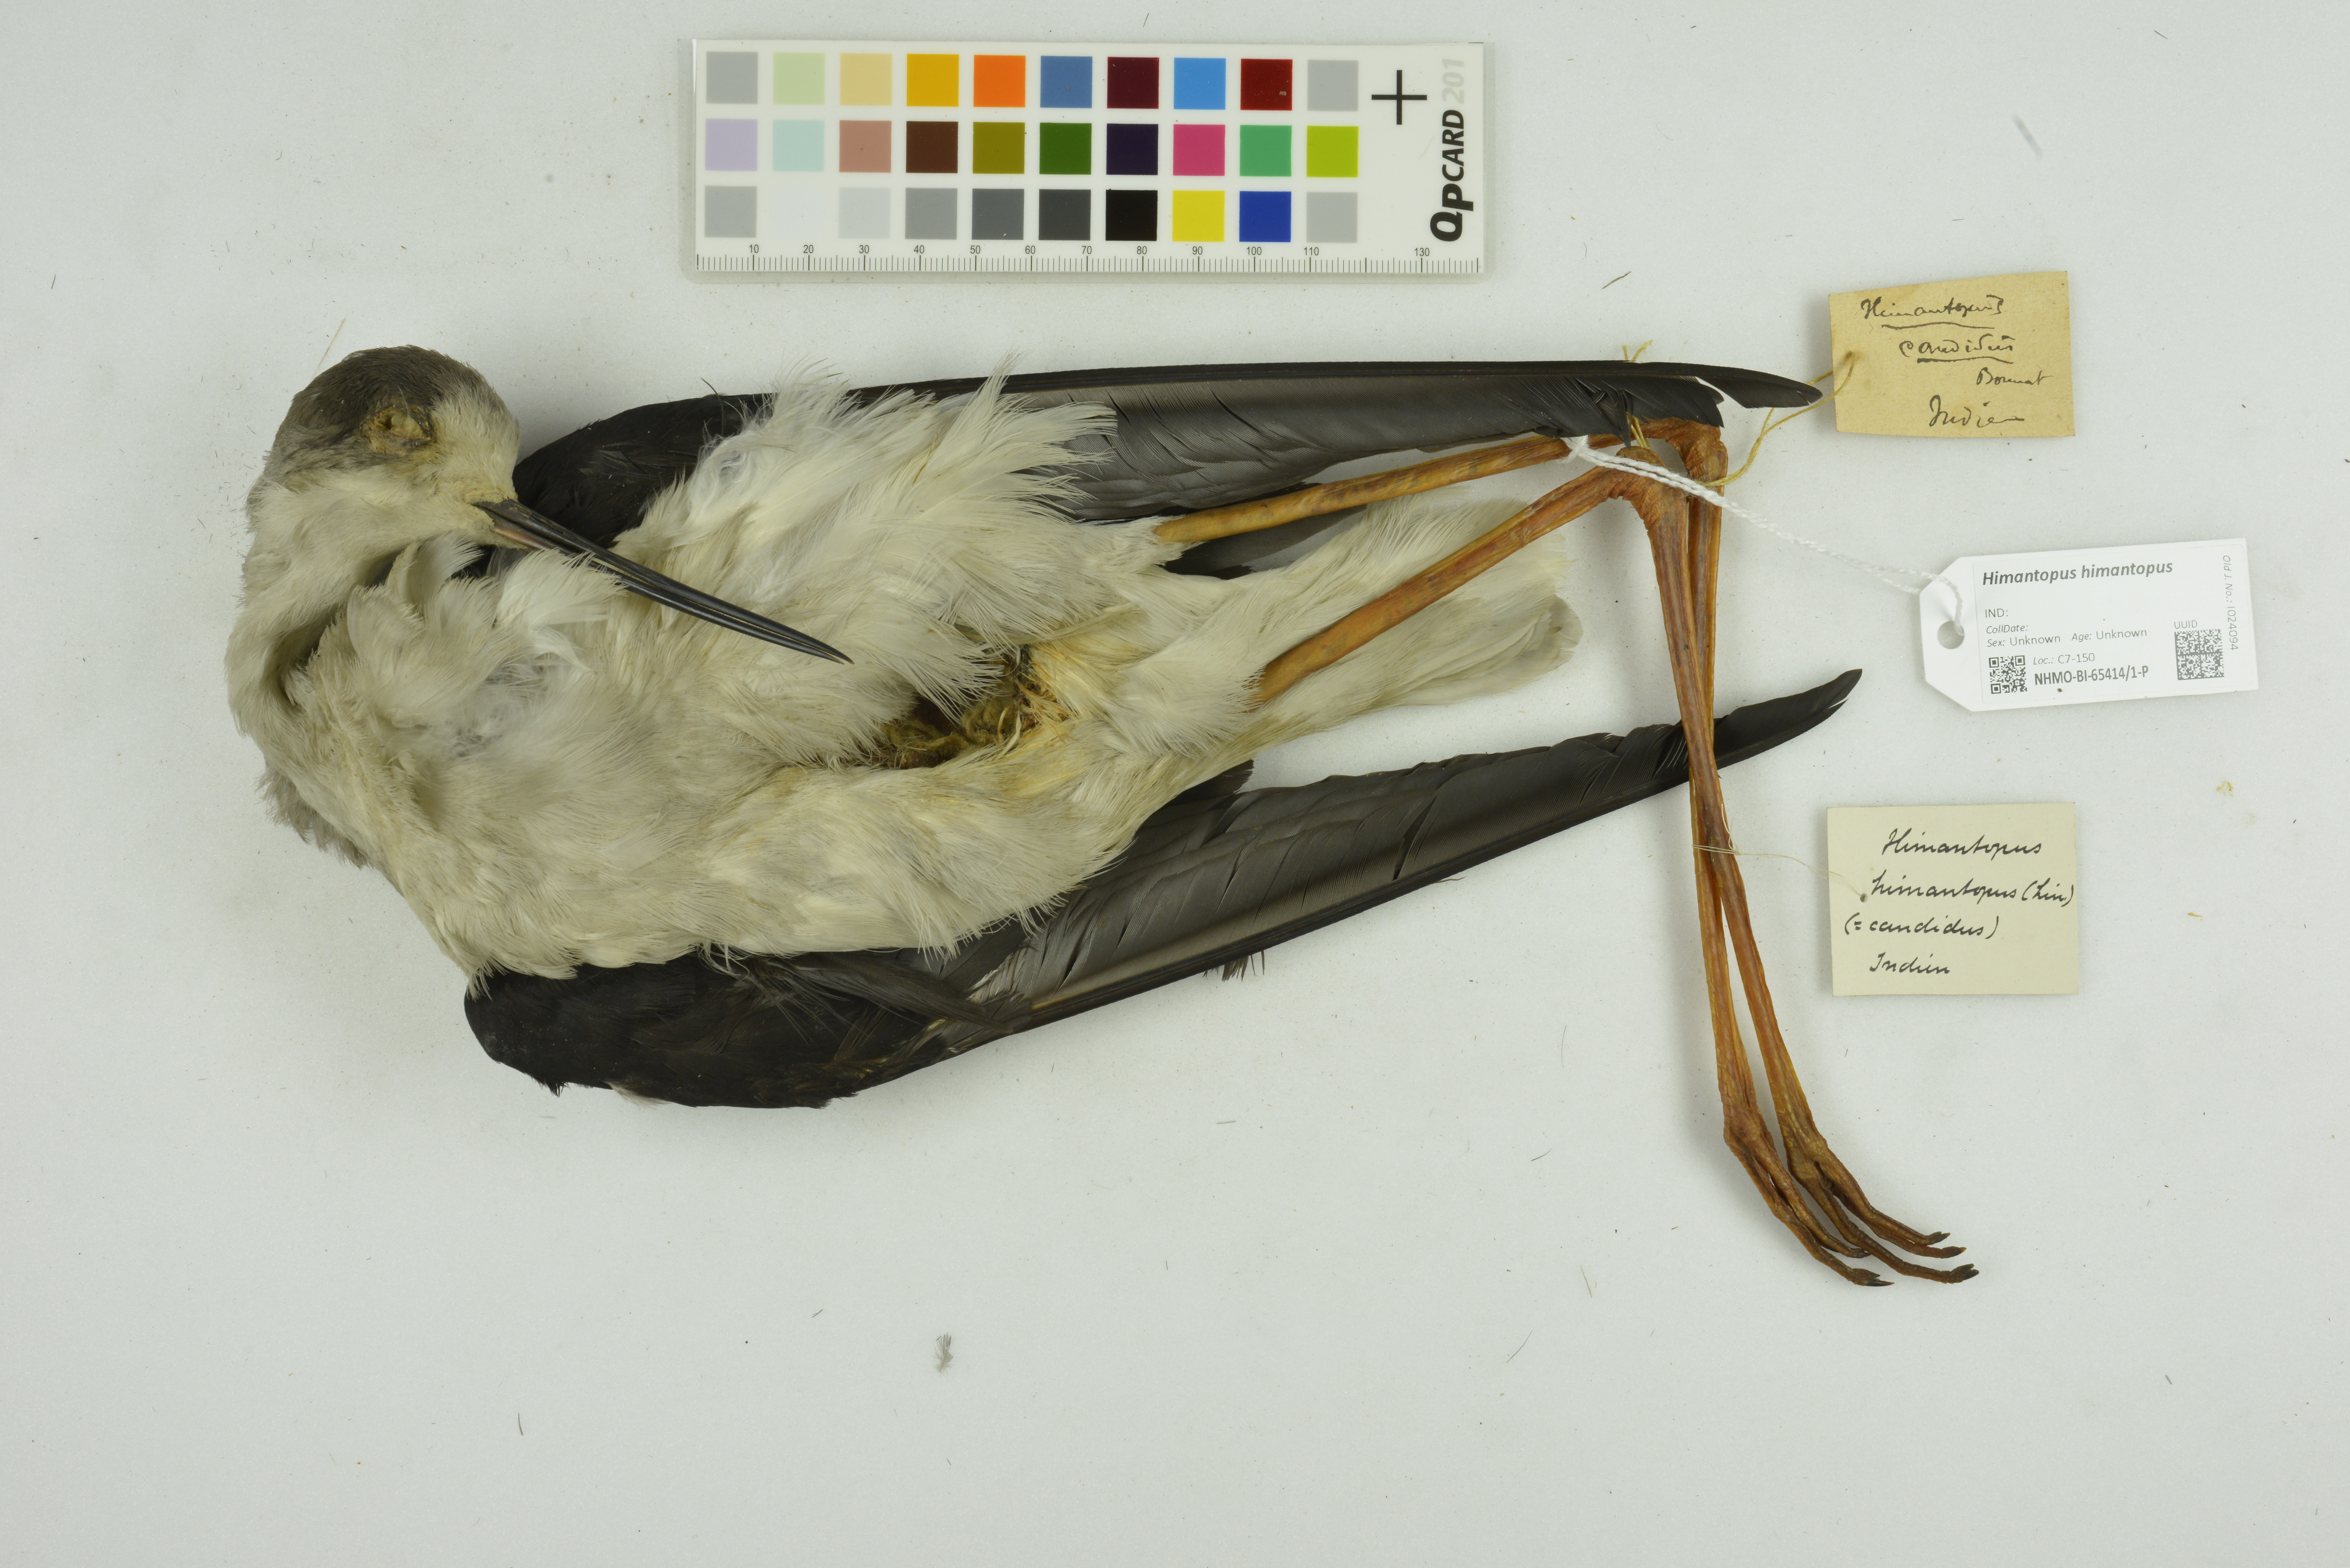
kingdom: Animalia
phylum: Chordata
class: Aves
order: Charadriiformes
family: Recurvirostridae
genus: Himantopus
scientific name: Himantopus himantopus
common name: Black-winged stilt
